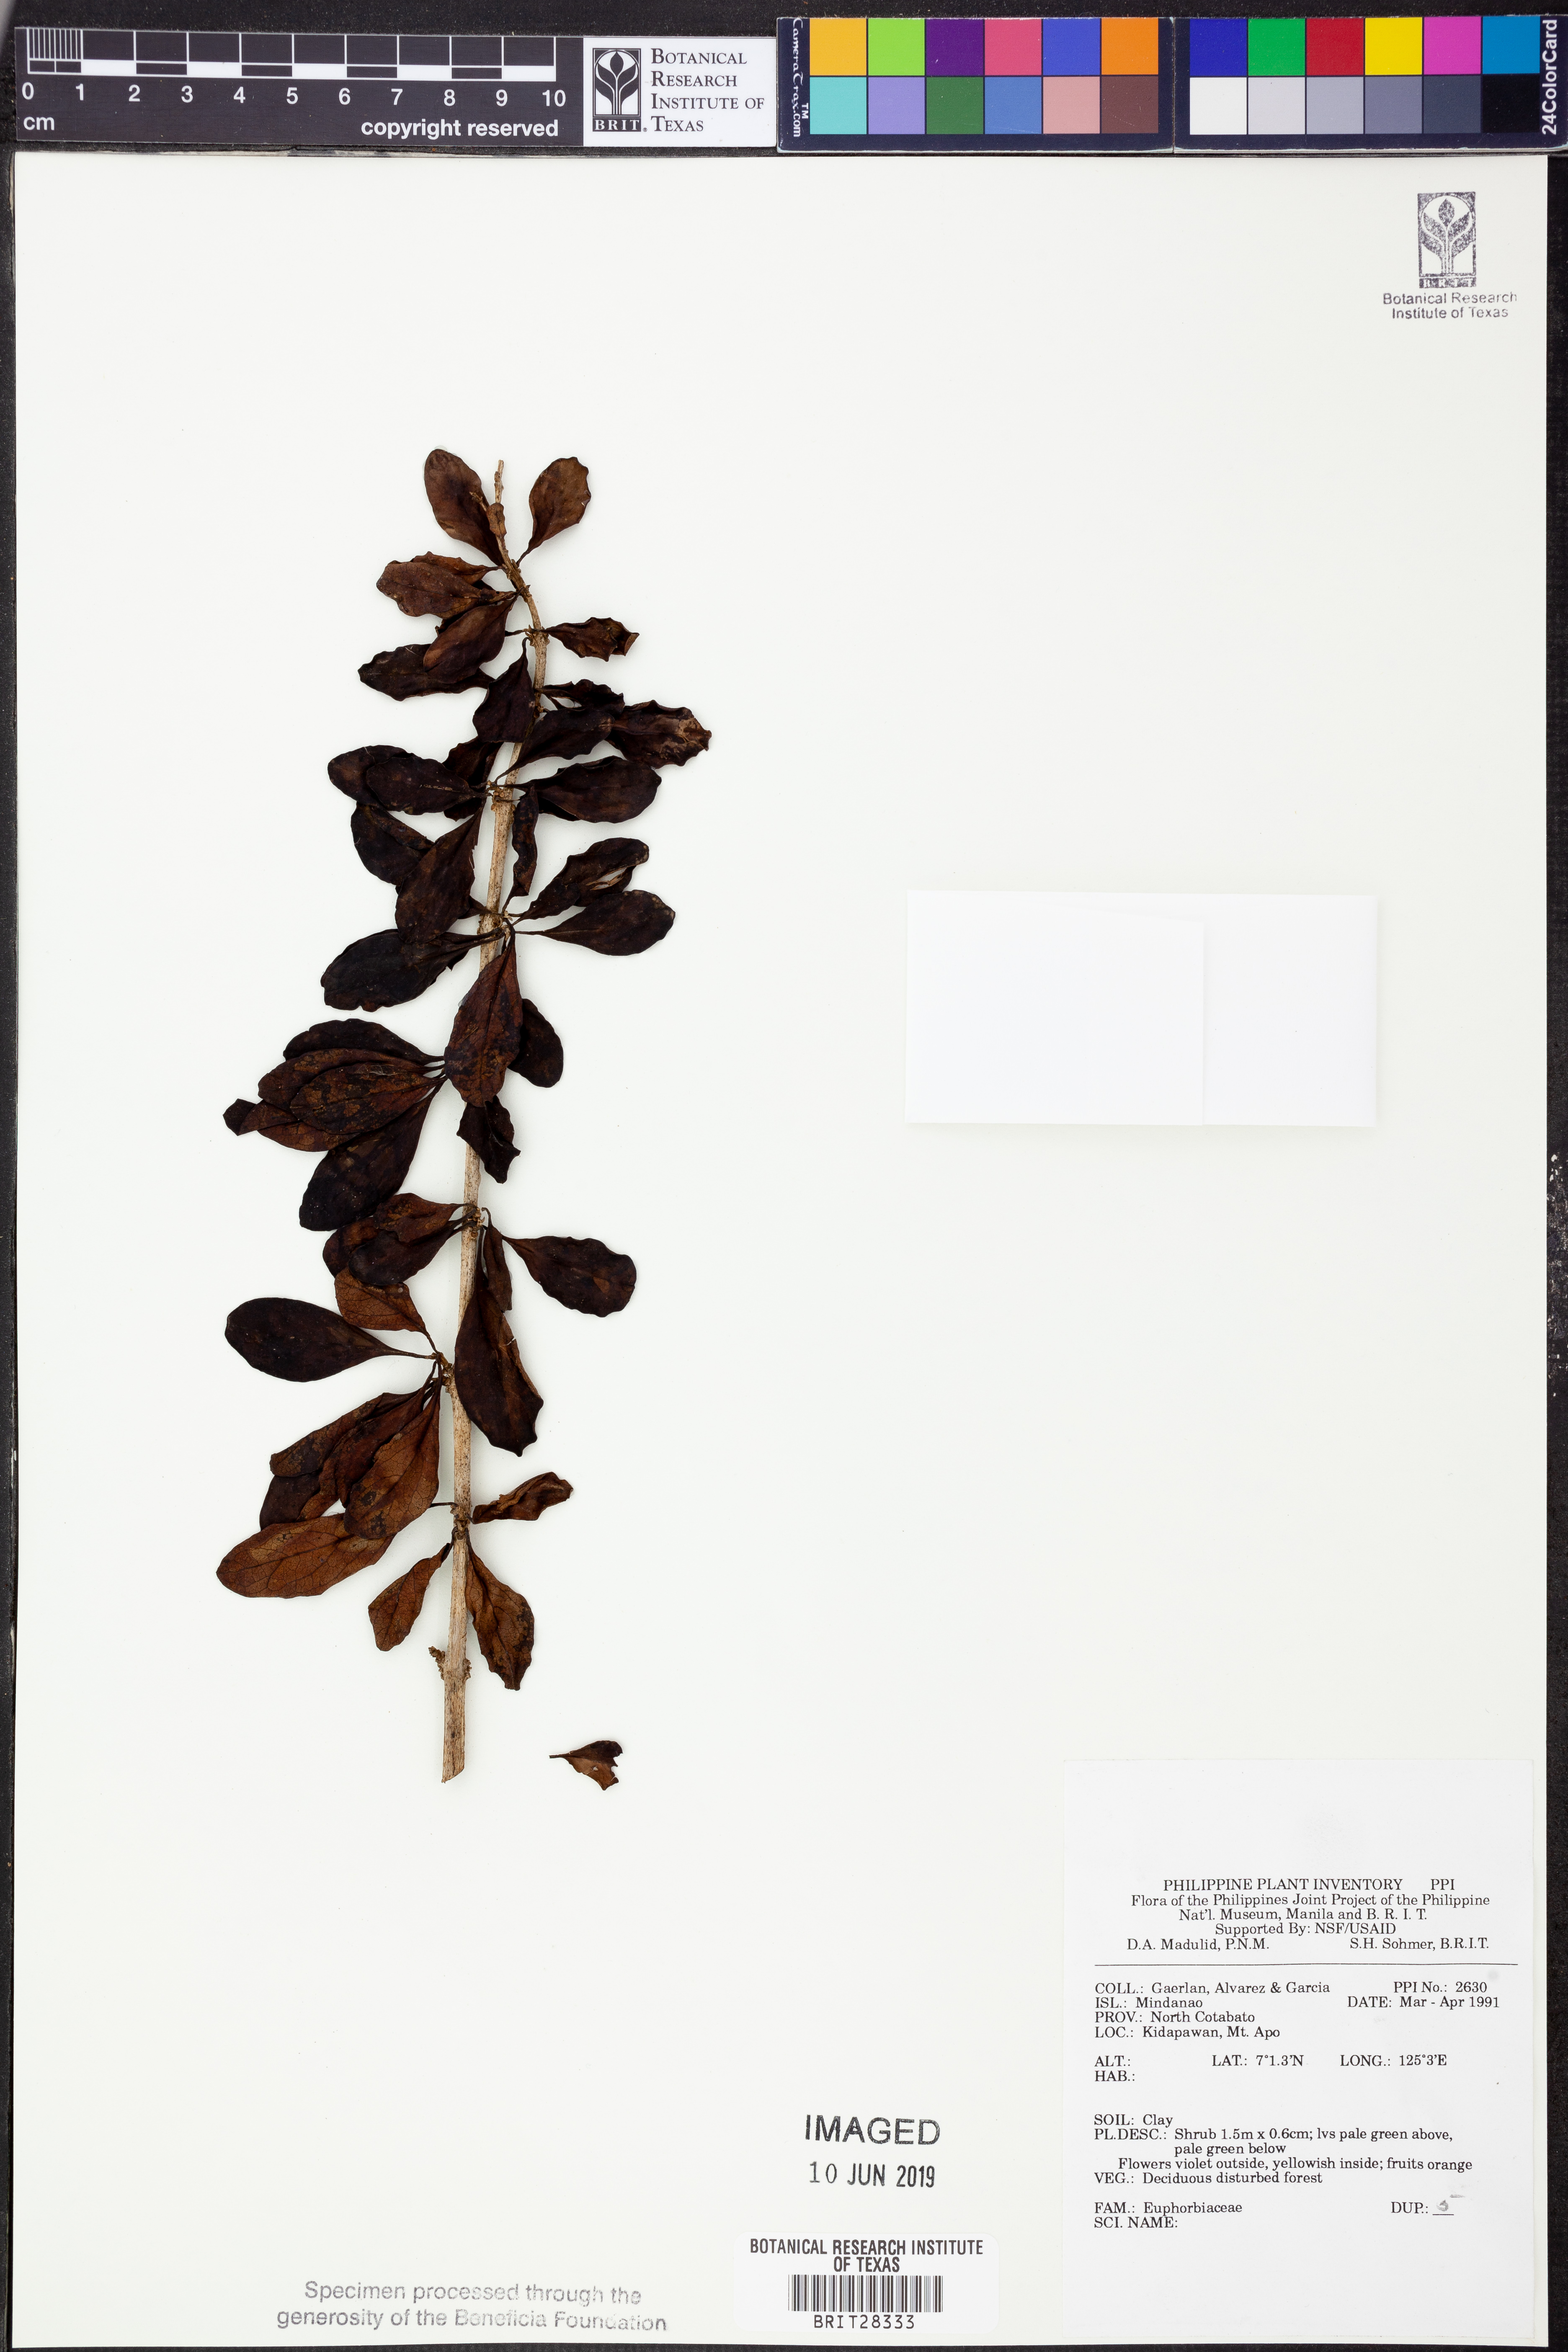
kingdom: Plantae
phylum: Tracheophyta
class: Magnoliopsida
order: Malpighiales
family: Euphorbiaceae
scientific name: Euphorbiaceae
